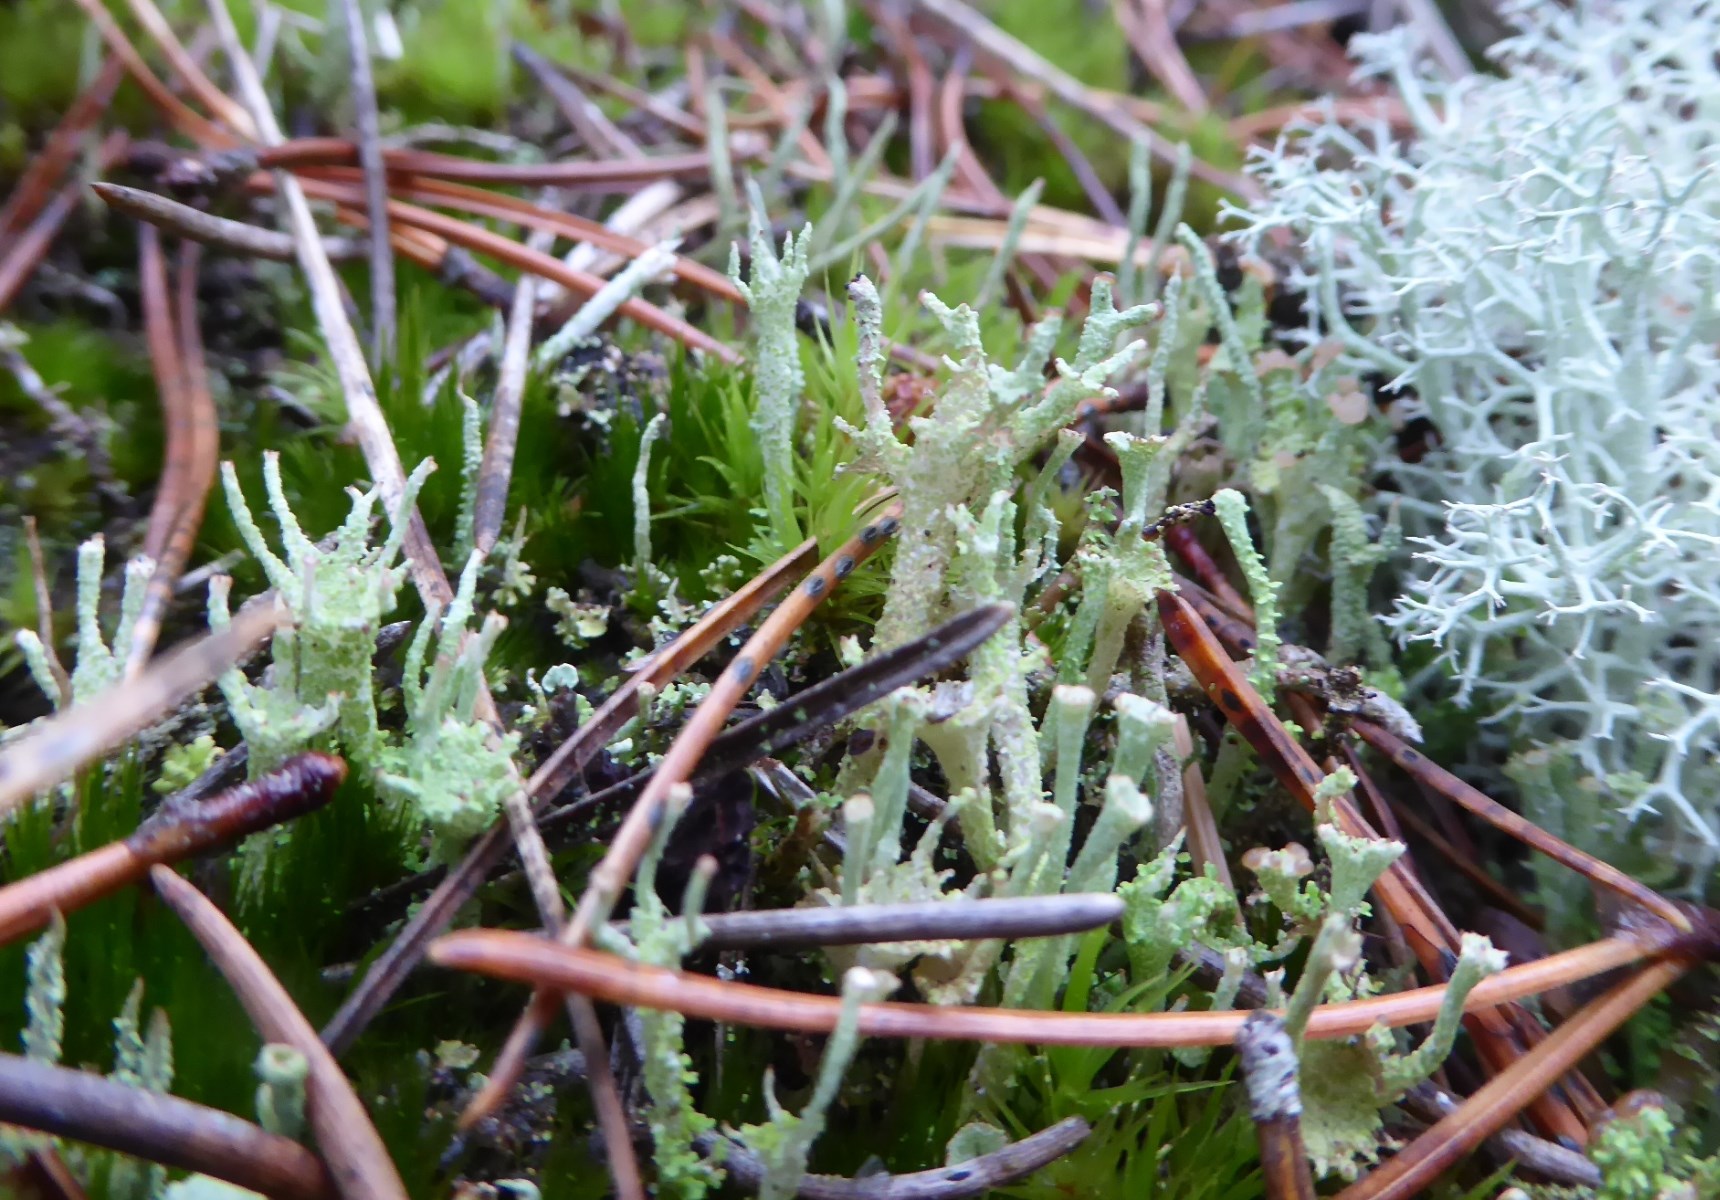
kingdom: Fungi
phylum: Ascomycota
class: Lecanoromycetes
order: Lecanorales
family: Cladoniaceae
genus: Cladonia
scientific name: Cladonia ramulosa
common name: kliddet bægerlav
